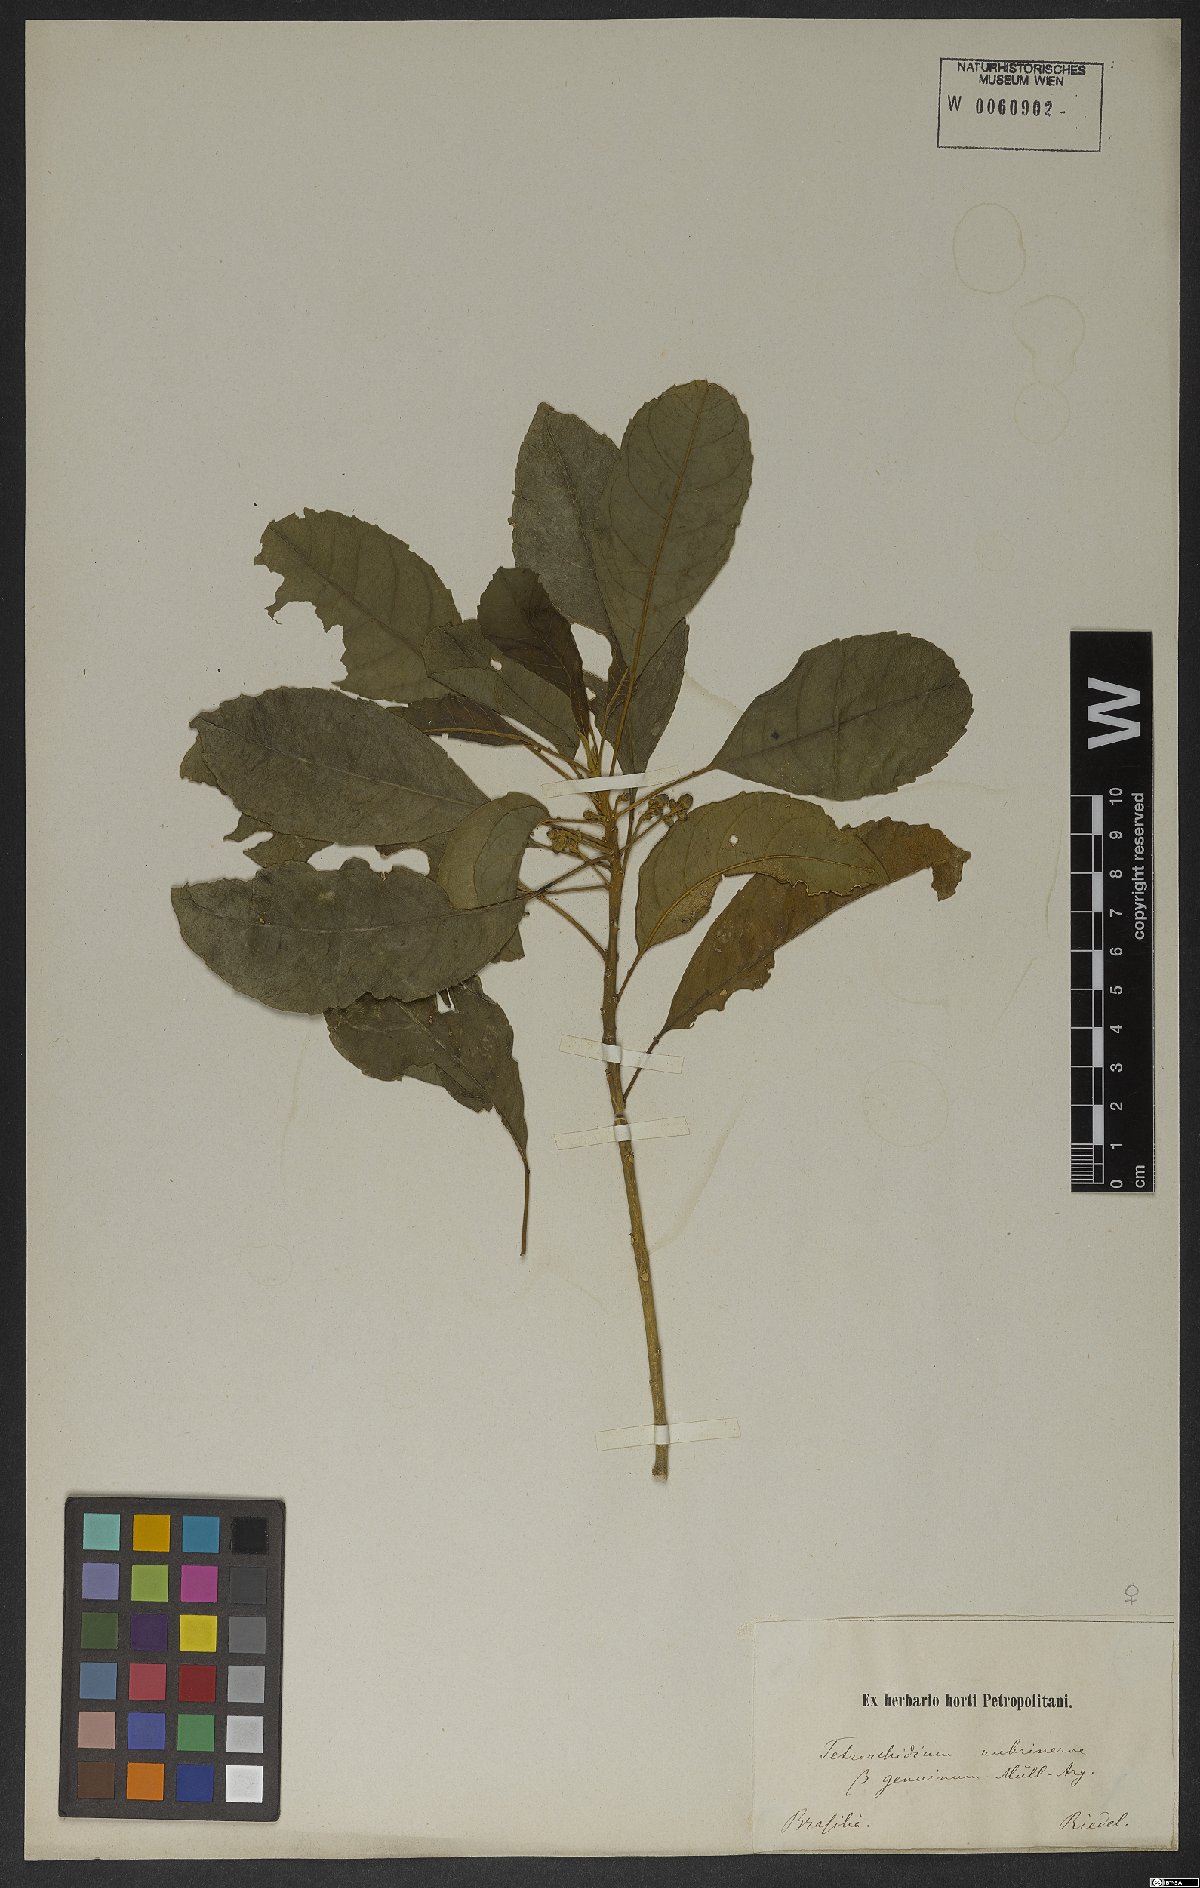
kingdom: Plantae
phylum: Tracheophyta
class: Magnoliopsida
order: Malpighiales
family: Euphorbiaceae
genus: Tetrorchidium
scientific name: Tetrorchidium rubrivenium
